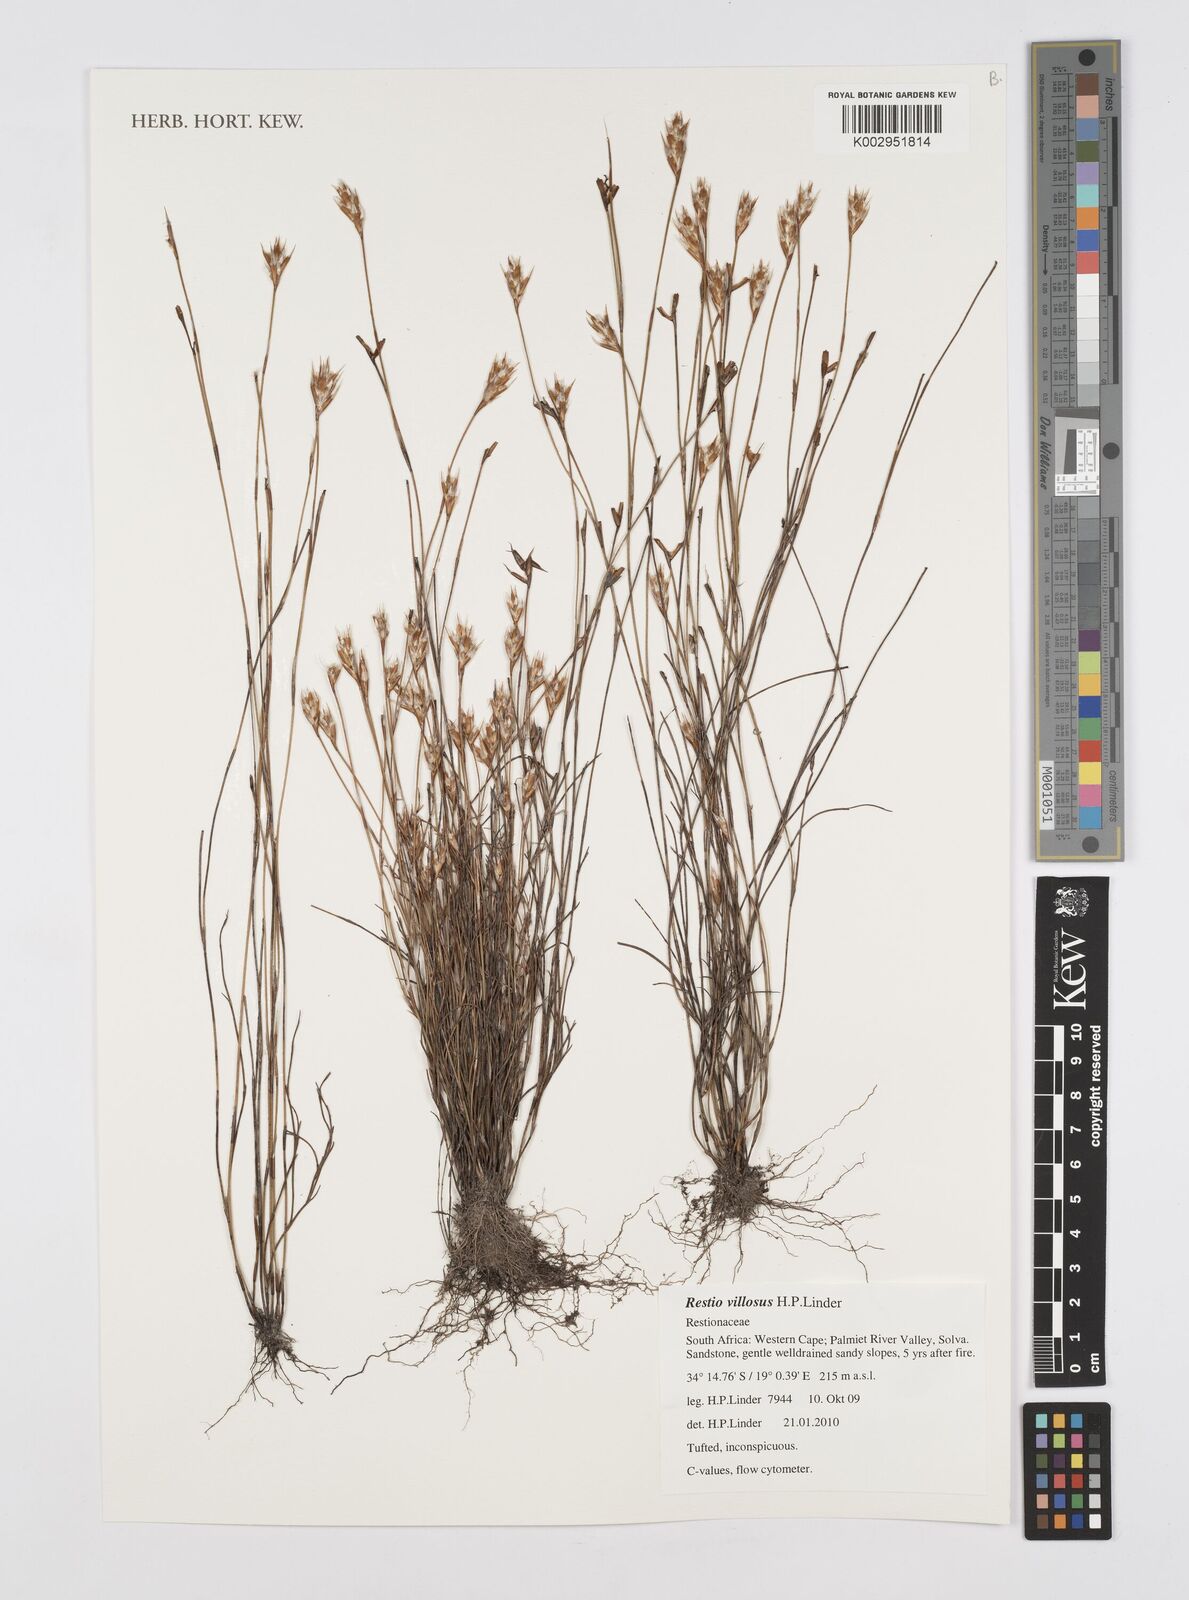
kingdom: Plantae
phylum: Tracheophyta
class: Liliopsida
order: Poales
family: Restionaceae
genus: Restio
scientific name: Restio
